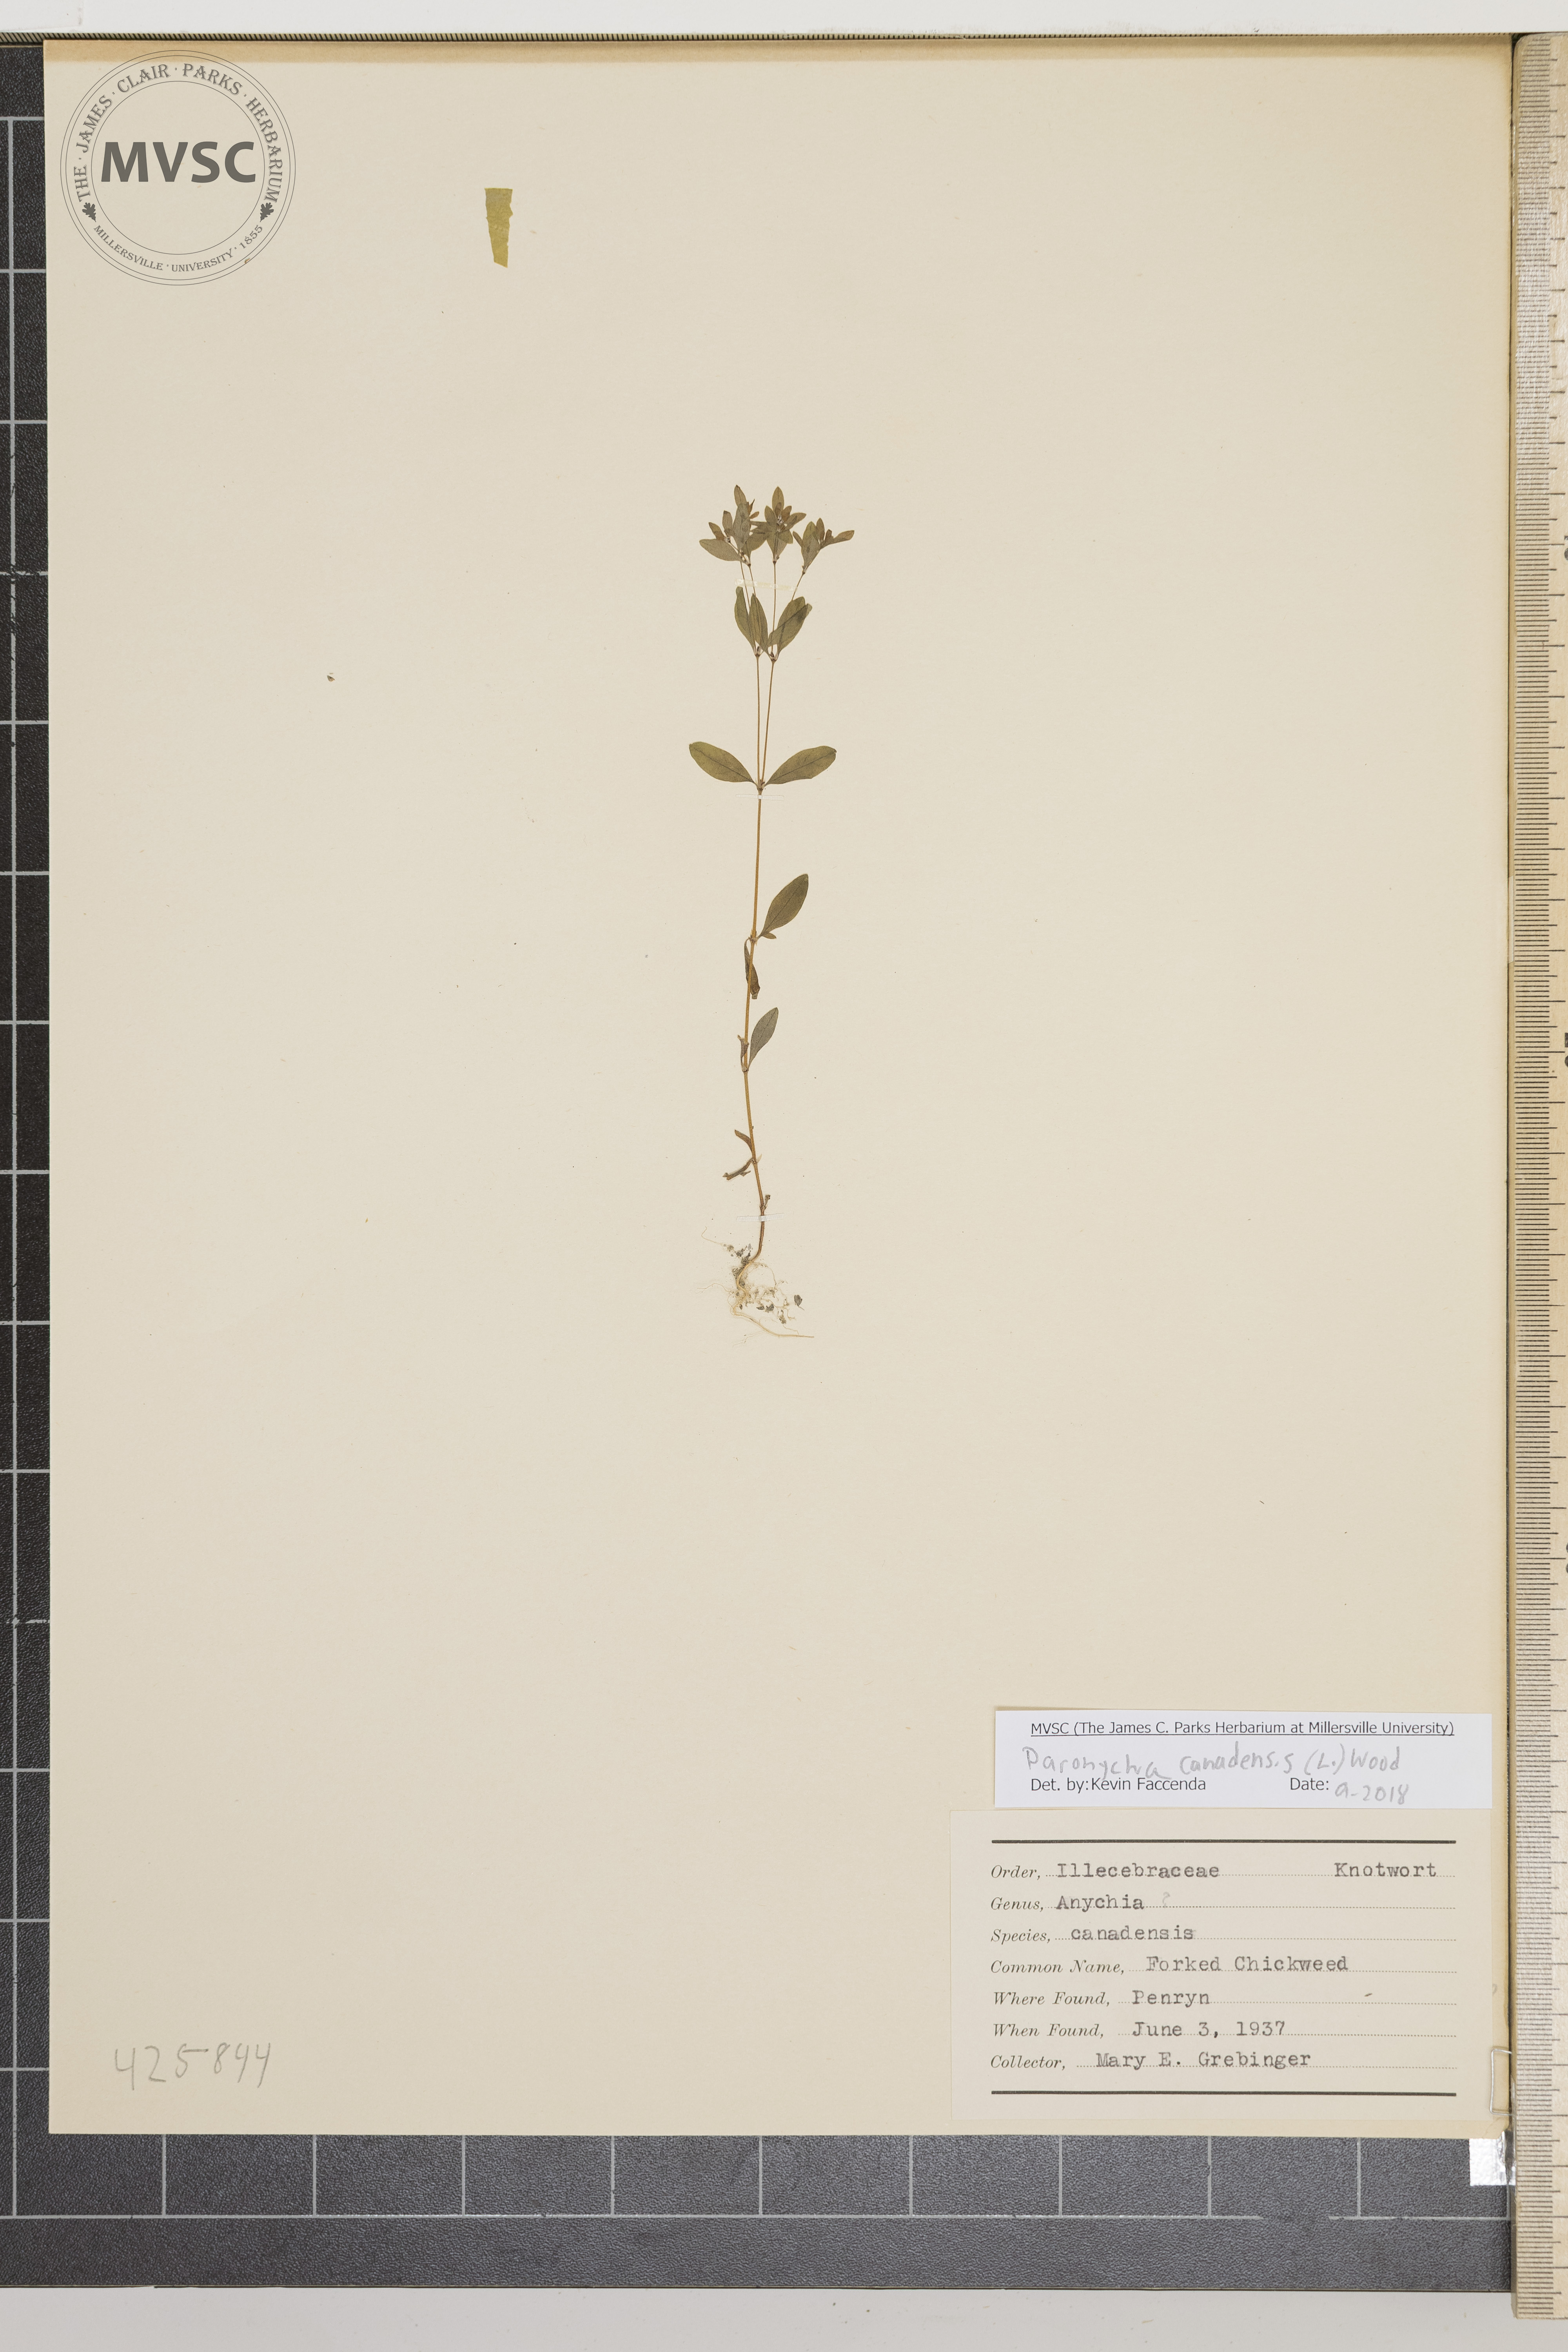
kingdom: Plantae
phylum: Tracheophyta
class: Magnoliopsida
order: Caryophyllales
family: Caryophyllaceae
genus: Paronychia
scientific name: Paronychia canadensis
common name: Forked chickweed
